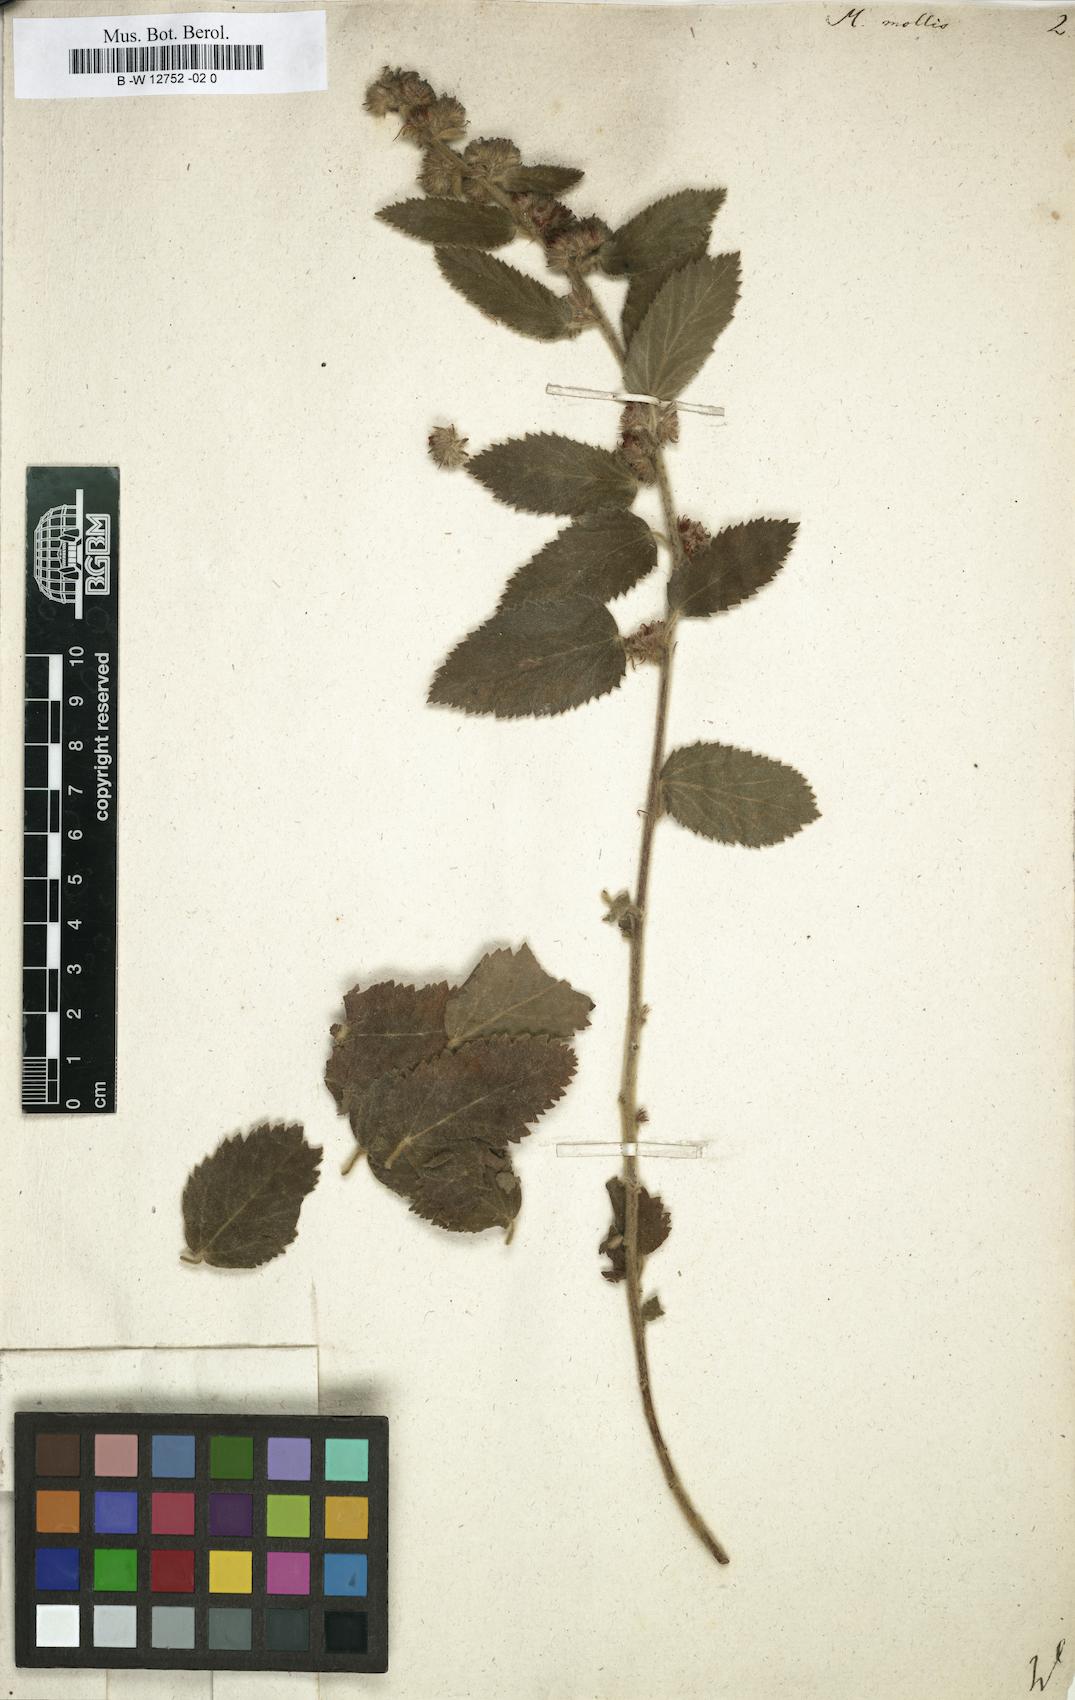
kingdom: Plantae
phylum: Tracheophyta
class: Magnoliopsida
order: Malvales
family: Malvaceae
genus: Malva
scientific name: Malva
